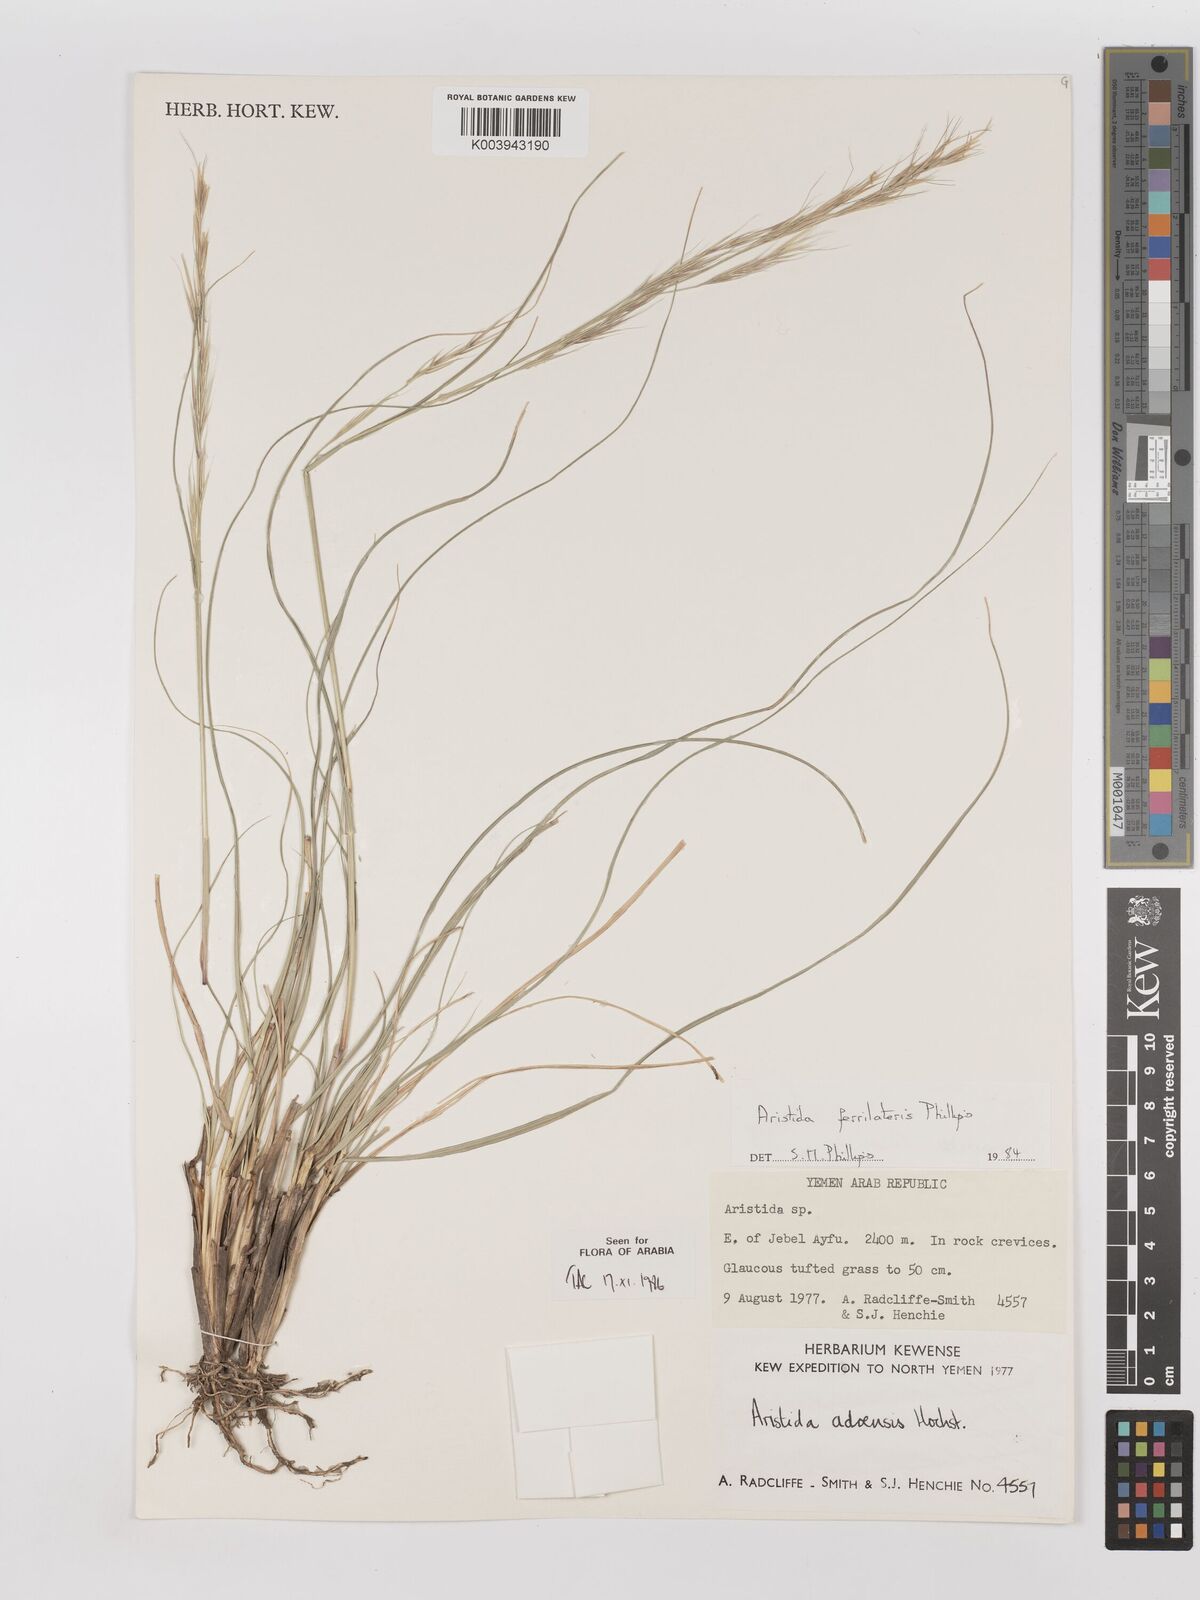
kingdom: Plantae
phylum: Tracheophyta
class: Liliopsida
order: Poales
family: Poaceae
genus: Aristida
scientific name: Aristida ferrilateris
